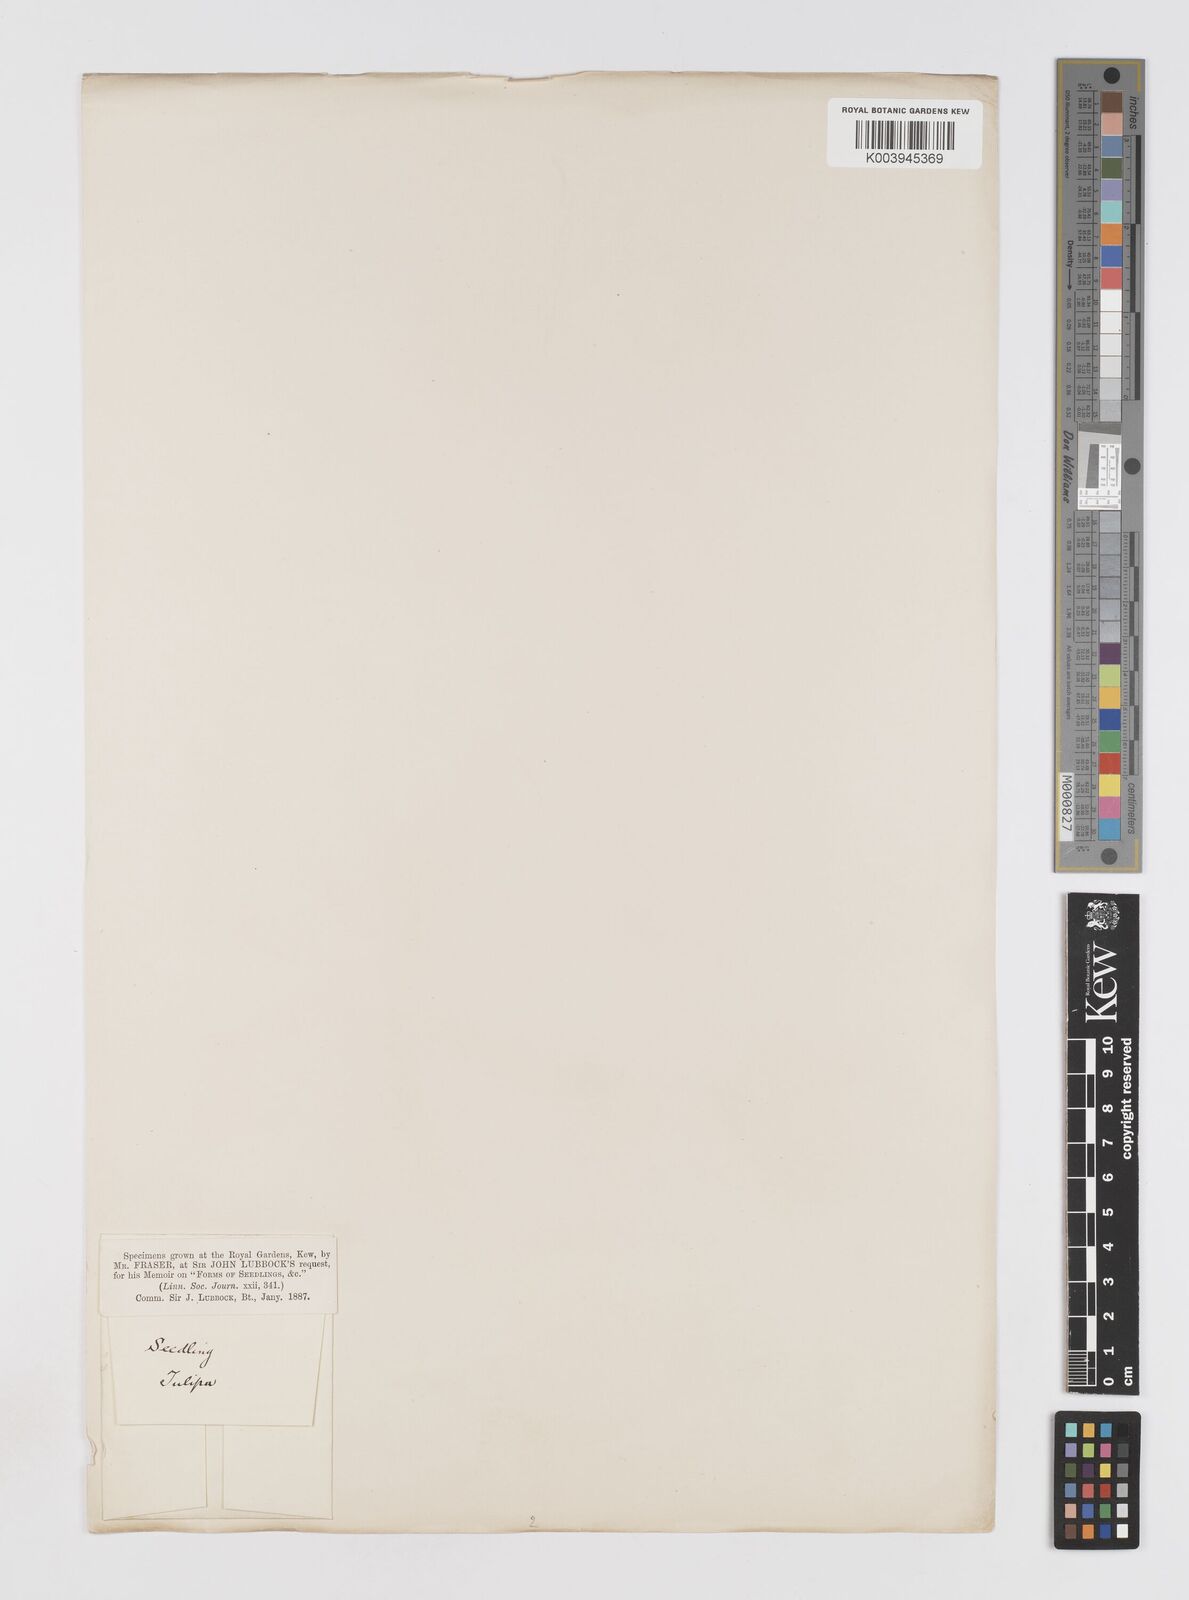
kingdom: Plantae
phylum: Tracheophyta
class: Liliopsida
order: Liliales
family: Liliaceae
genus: Tulipa
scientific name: Tulipa
